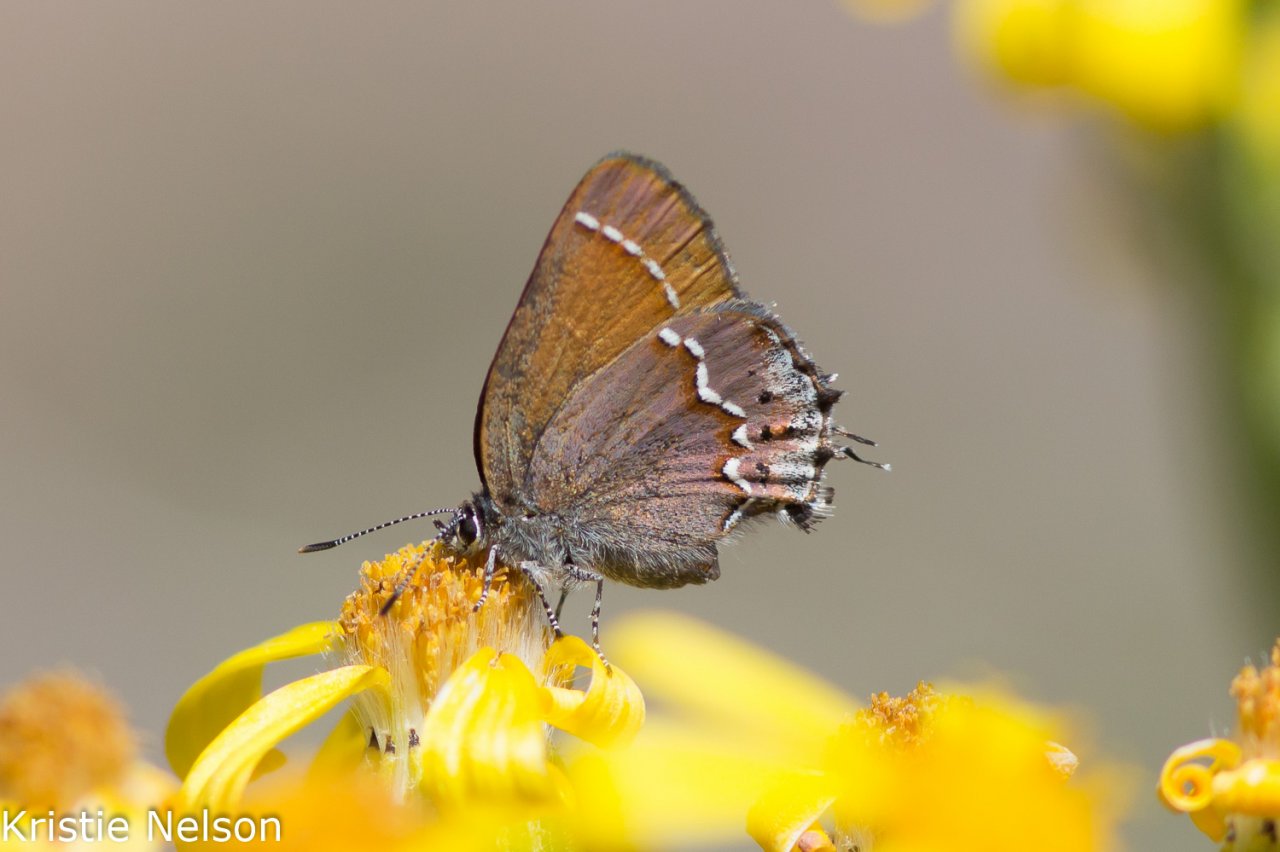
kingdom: Animalia
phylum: Arthropoda
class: Insecta
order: Lepidoptera
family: Lycaenidae
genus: Mitoura
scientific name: Mitoura gryneus
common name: Juniper Hairstreak
